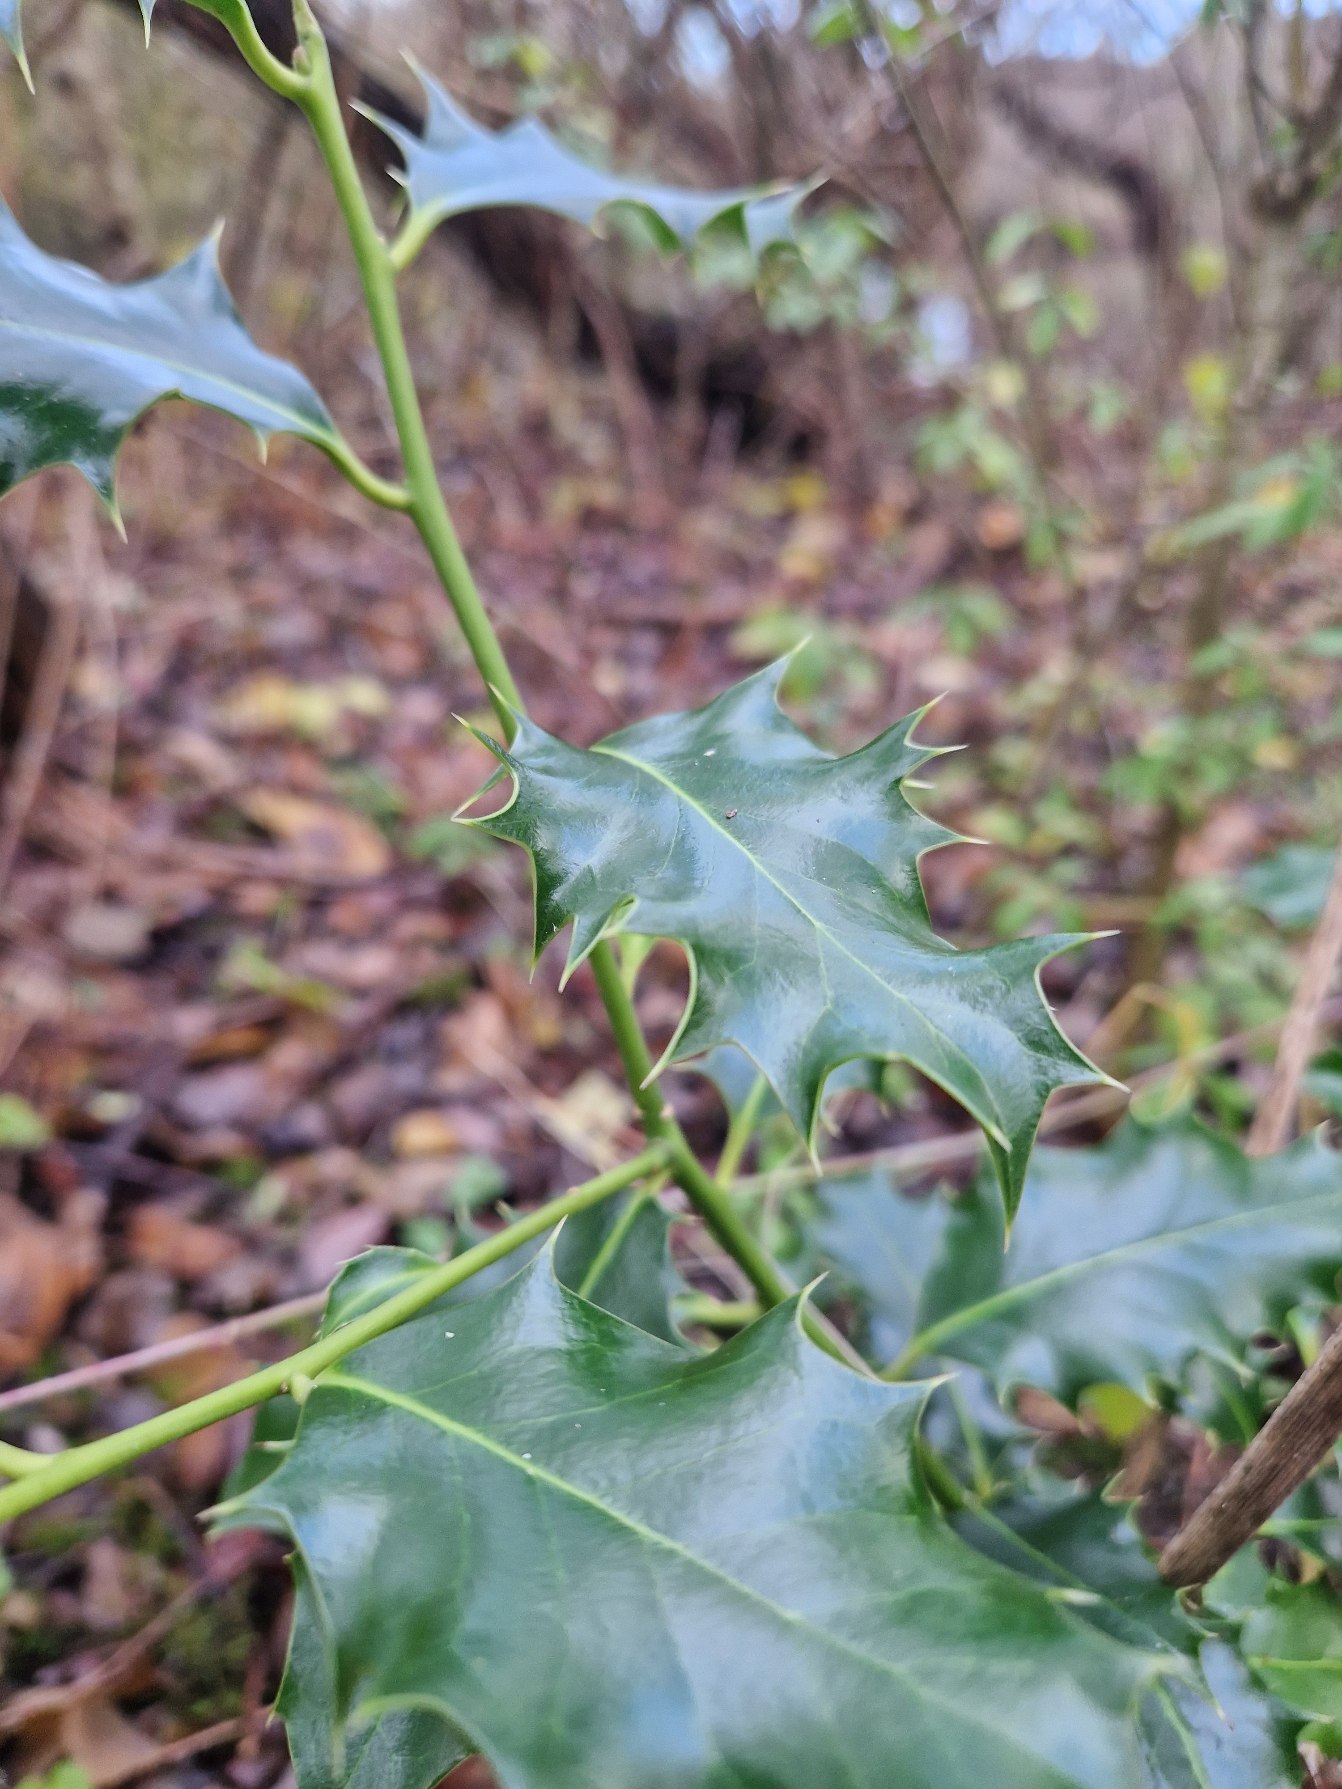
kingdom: Plantae
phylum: Tracheophyta
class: Magnoliopsida
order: Aquifoliales
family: Aquifoliaceae
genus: Ilex
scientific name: Ilex aquifolium
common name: Kristtorn
